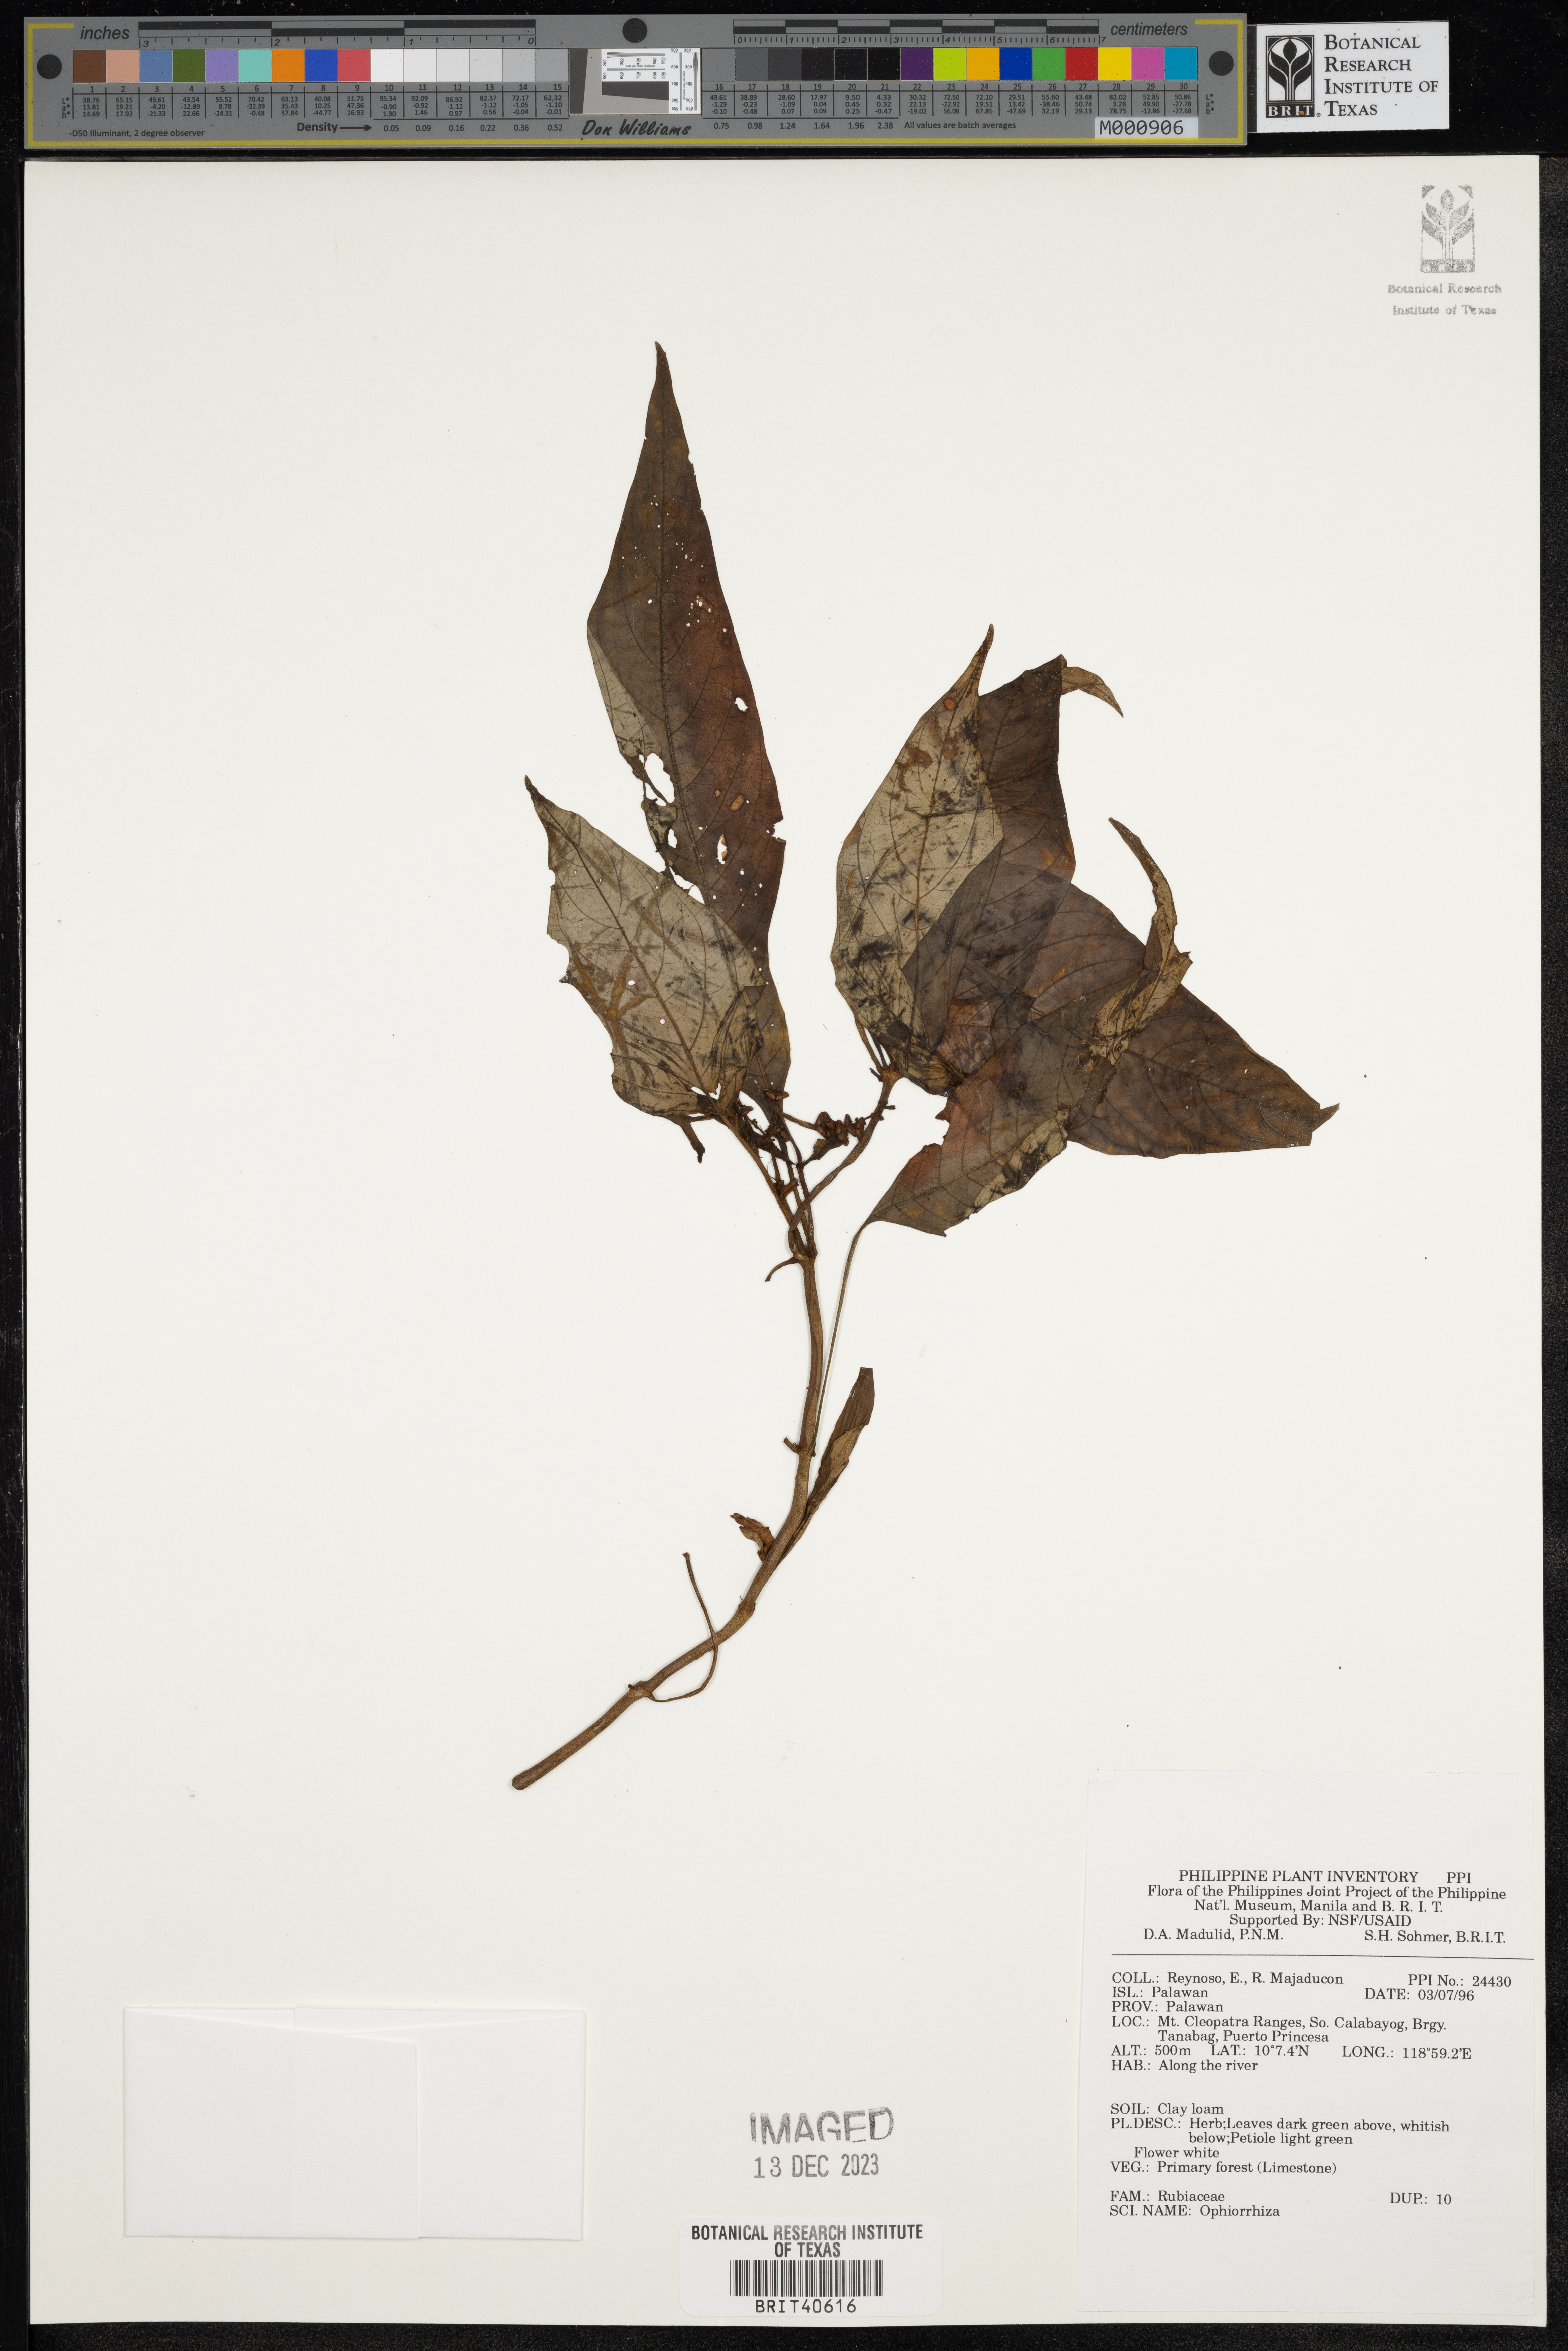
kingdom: Plantae
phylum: Tracheophyta
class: Magnoliopsida
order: Gentianales
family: Rubiaceae
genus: Ophiorrhiza
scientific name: Ophiorrhiza
